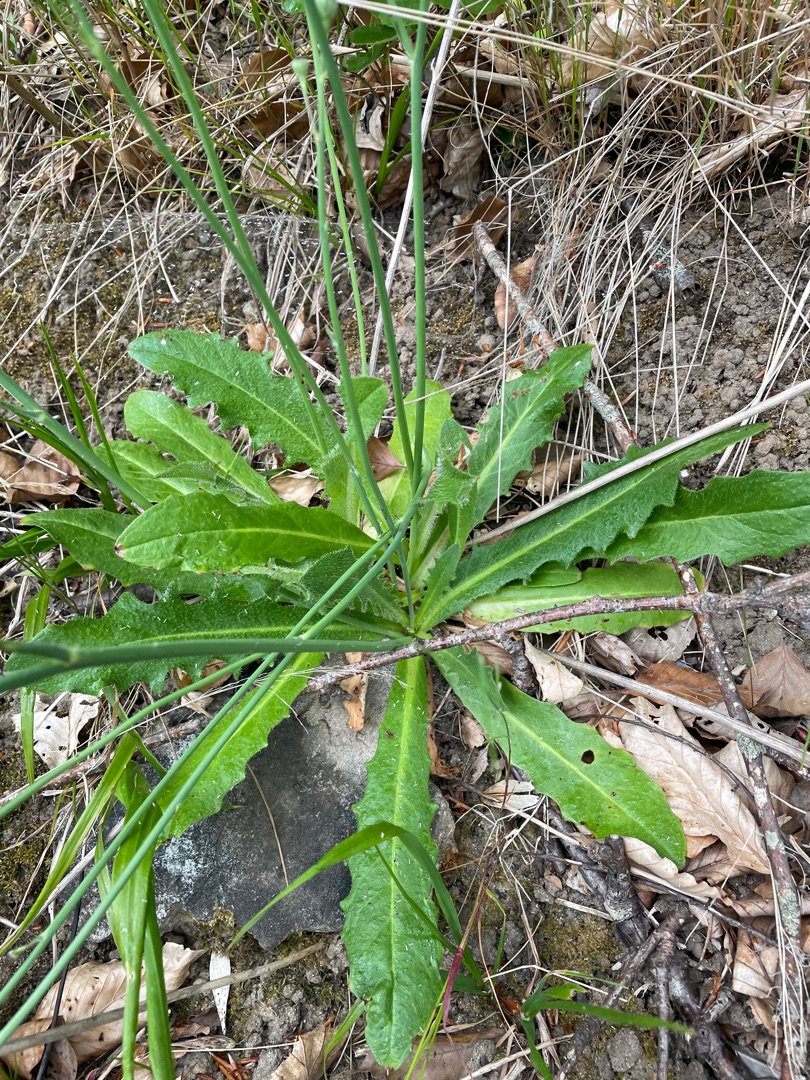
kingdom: Plantae
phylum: Tracheophyta
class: Magnoliopsida
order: Asterales
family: Asteraceae
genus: Hypochaeris
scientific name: Hypochaeris radicata
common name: Almindelig kongepen
